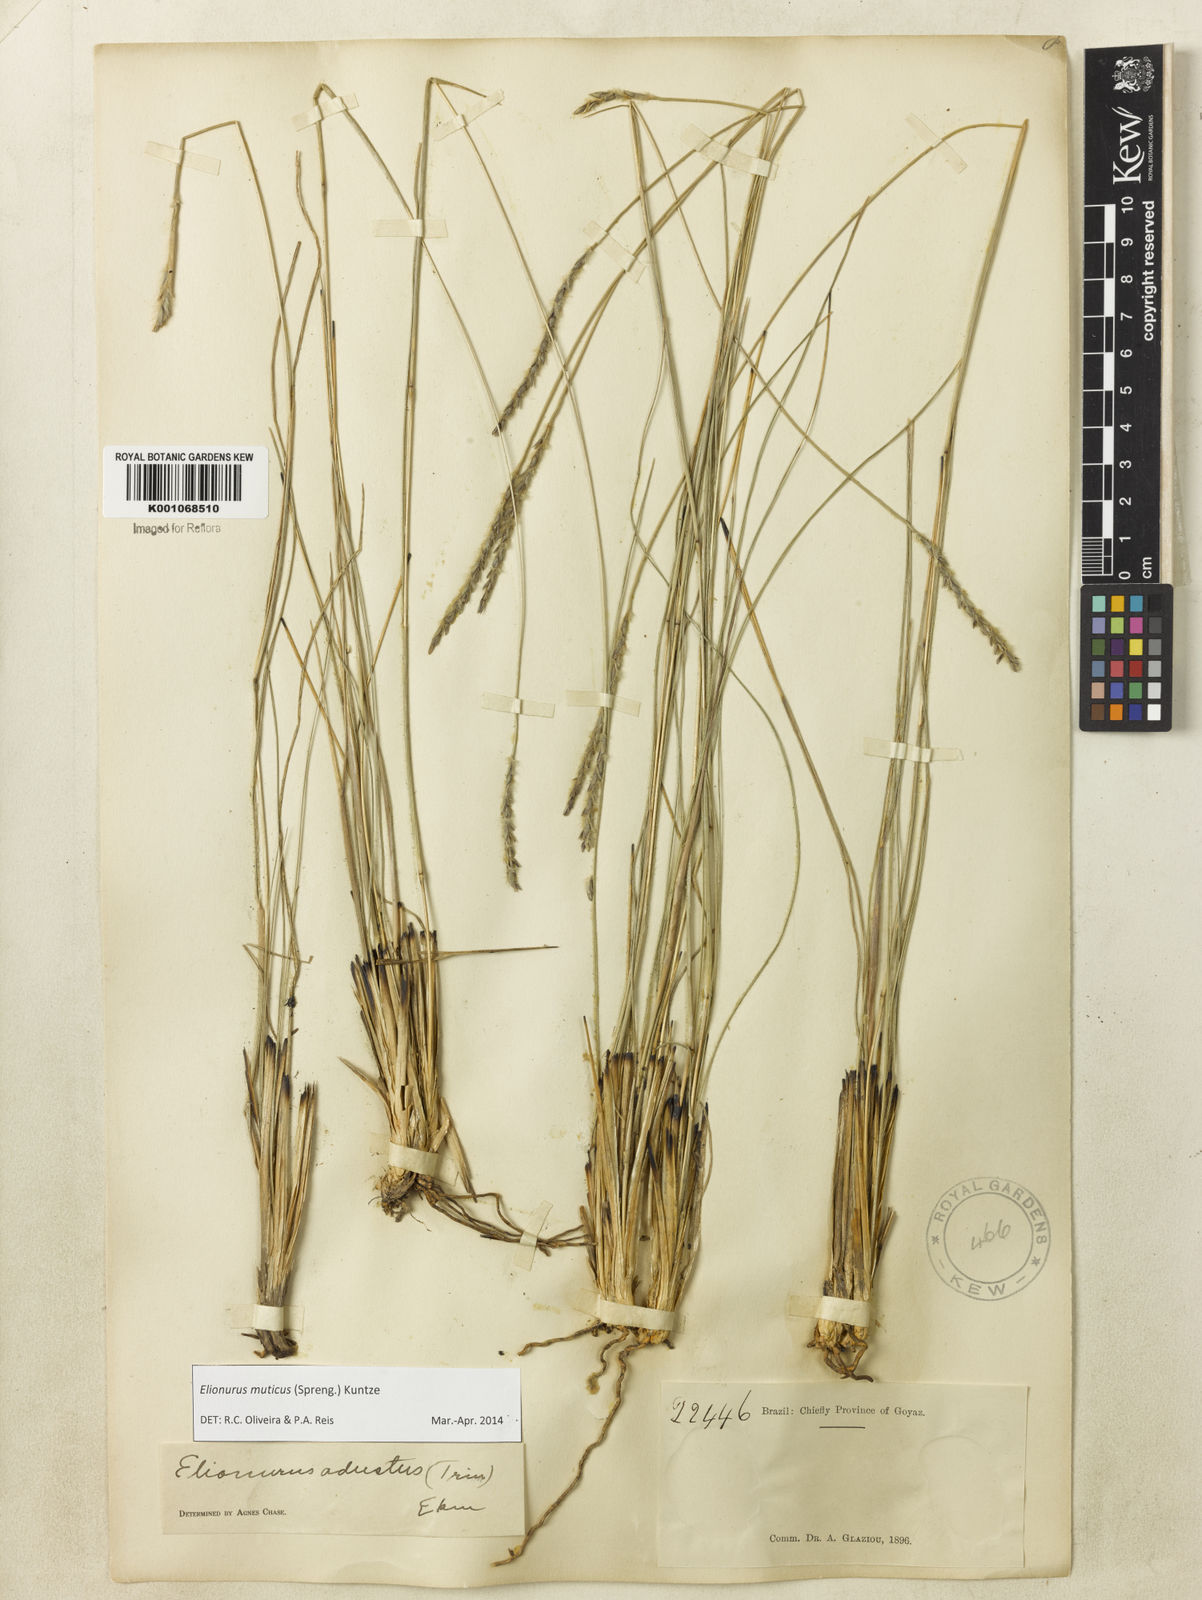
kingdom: Plantae
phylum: Tracheophyta
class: Liliopsida
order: Poales
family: Poaceae
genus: Elionurus
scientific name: Elionurus muticus
